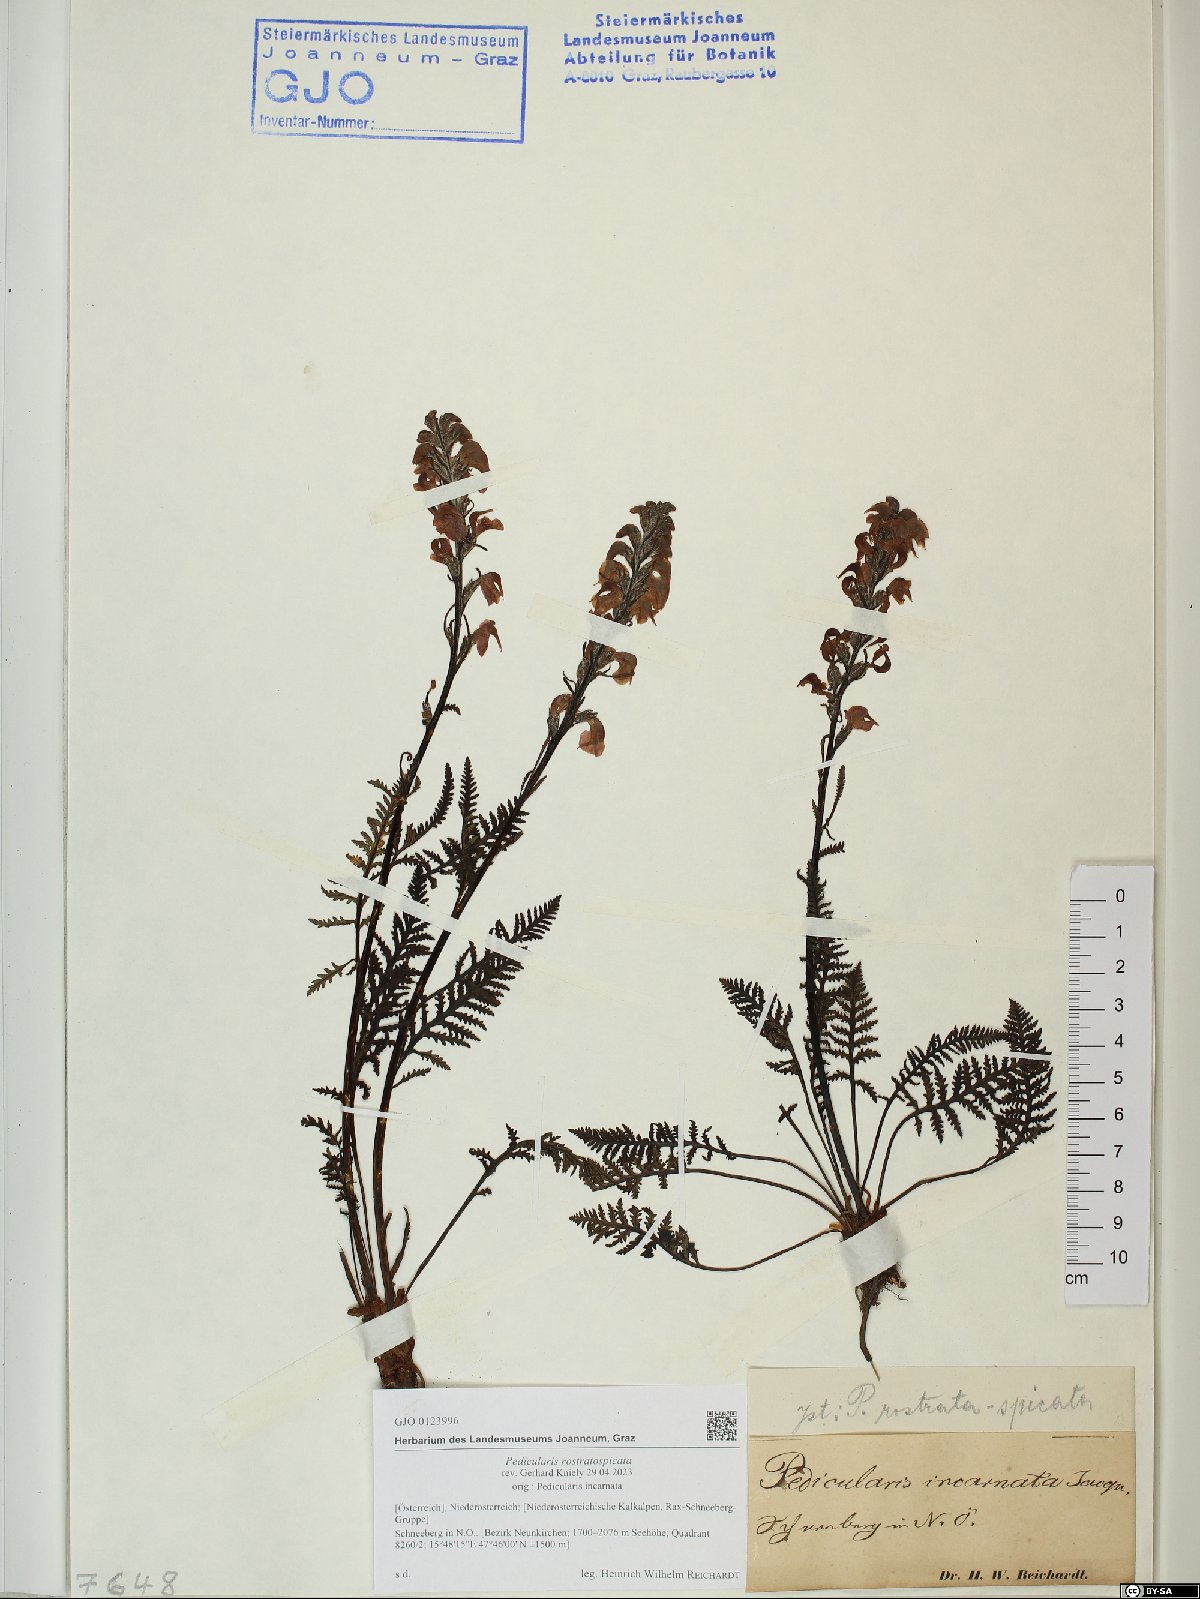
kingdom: Plantae
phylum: Tracheophyta
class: Magnoliopsida
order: Lamiales
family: Orobanchaceae
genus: Pedicularis
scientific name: Pedicularis rostratospicata
